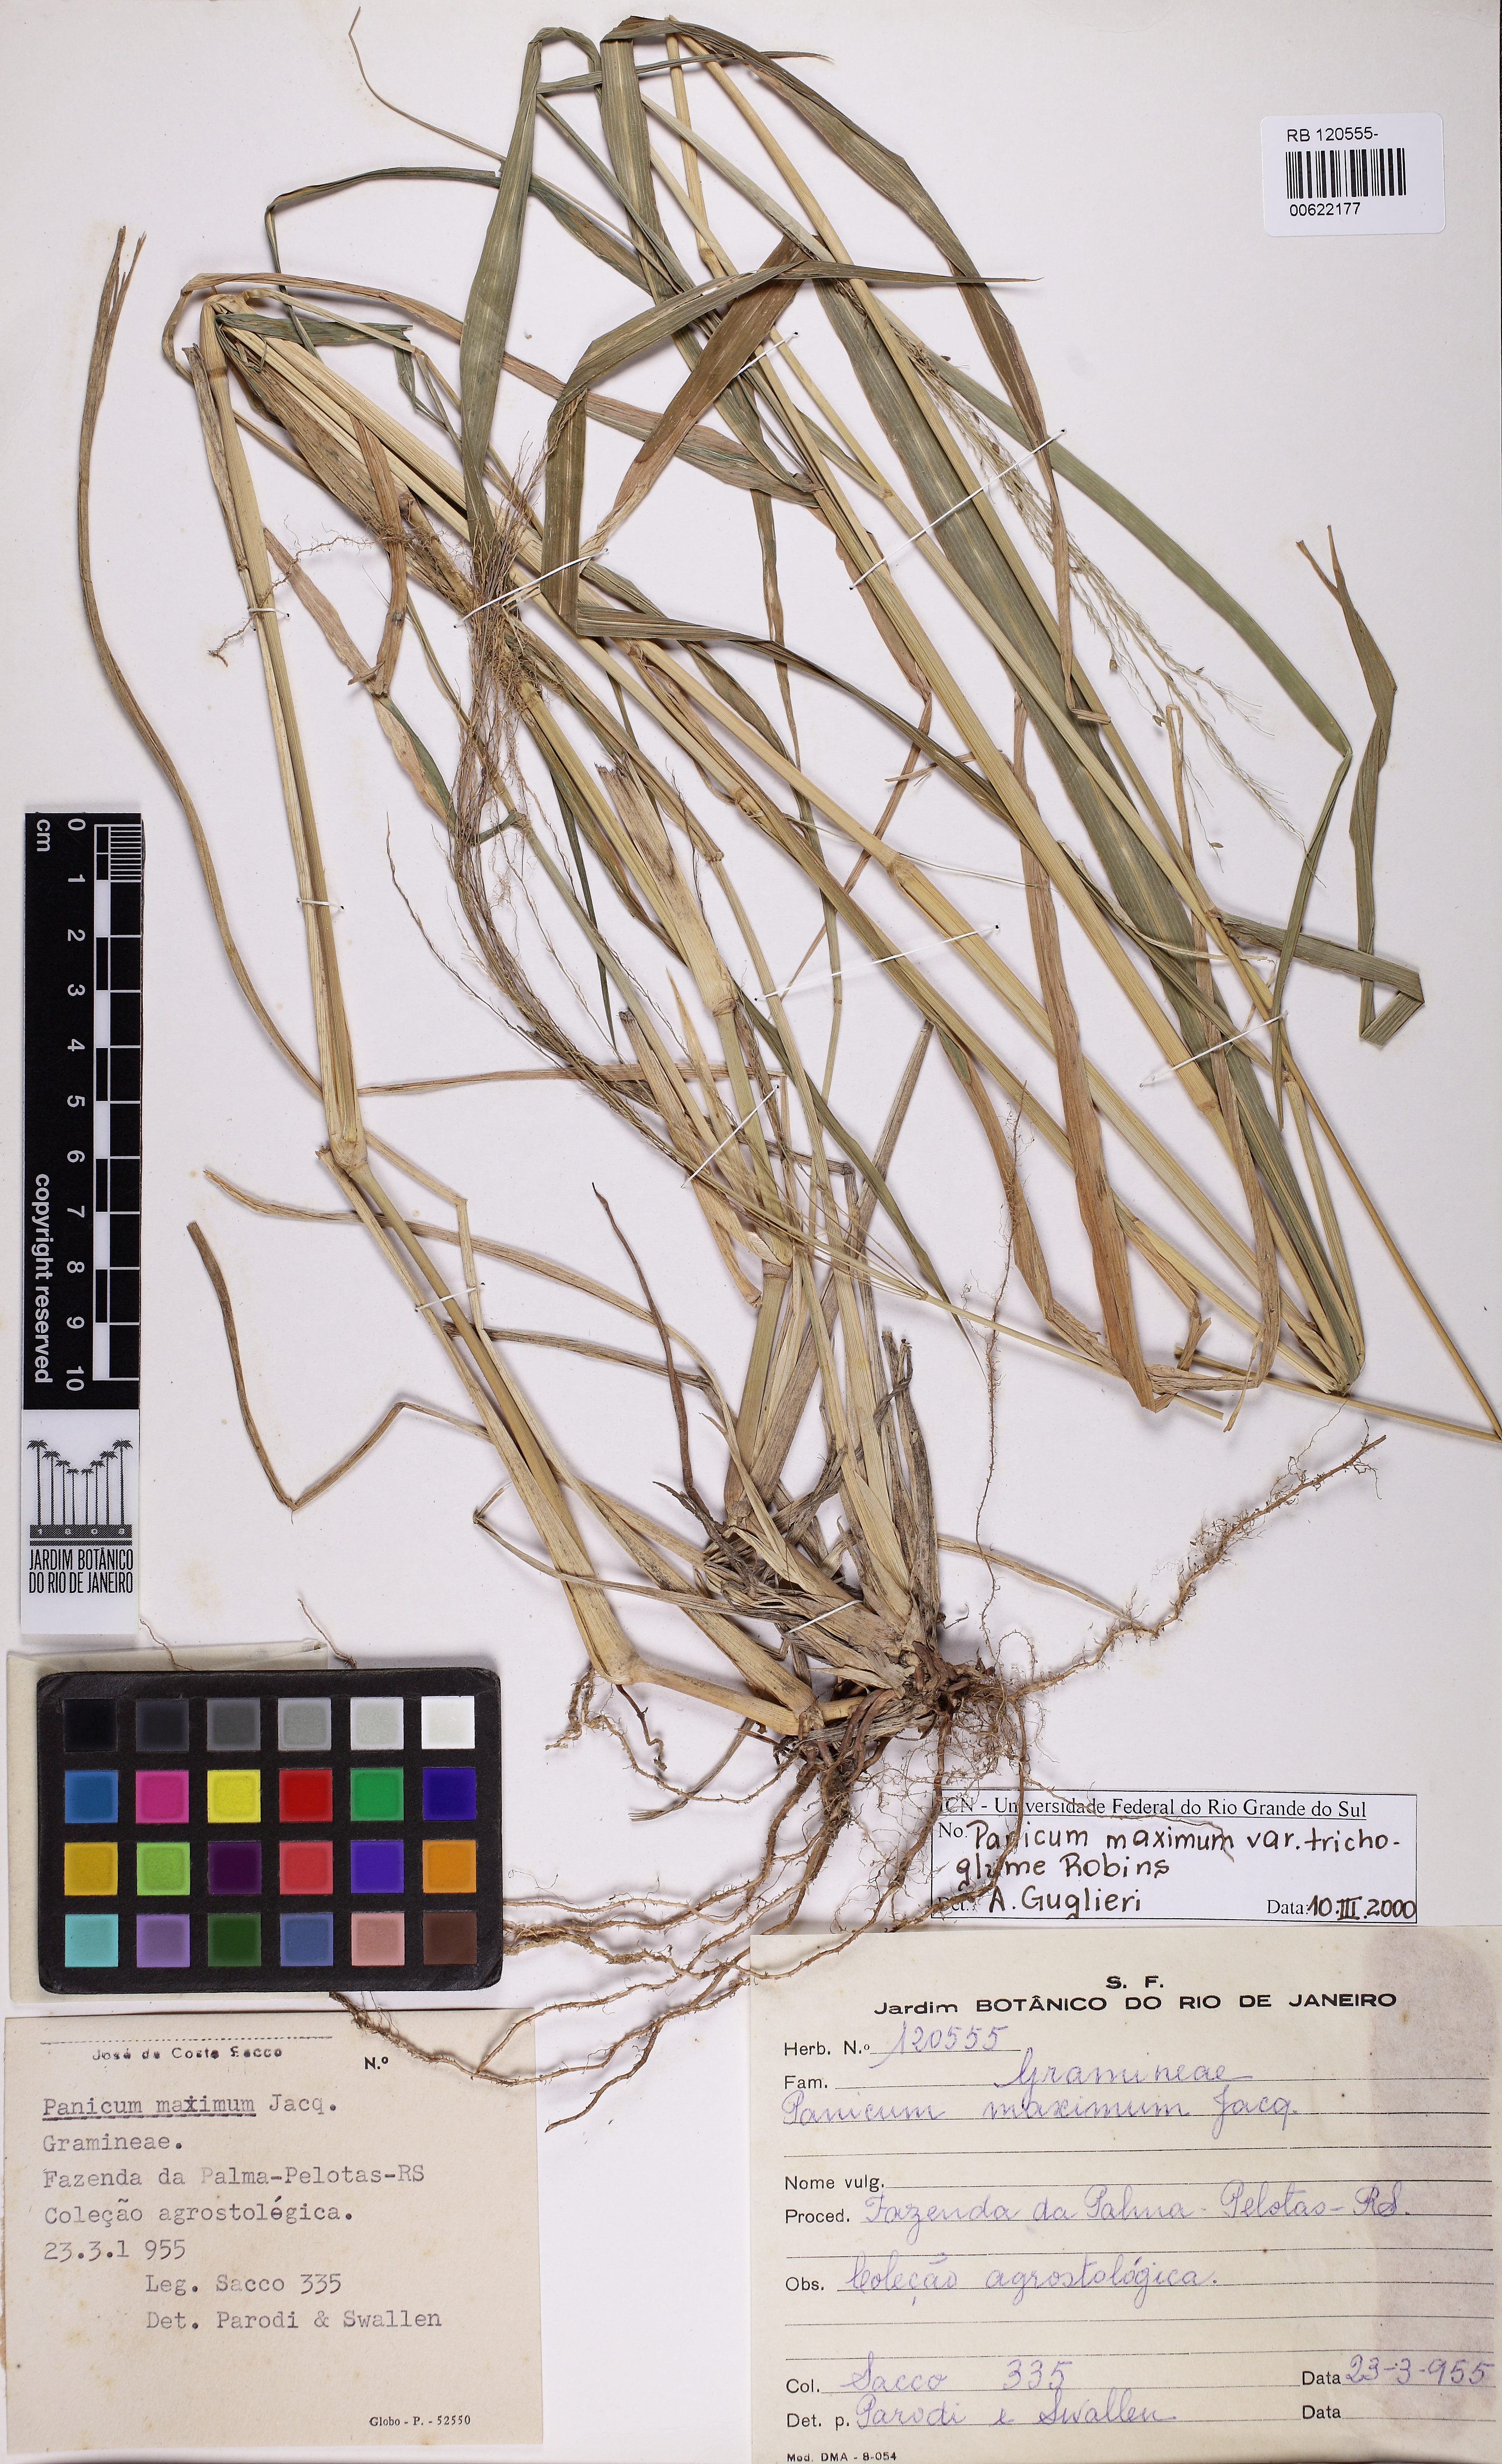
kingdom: Plantae
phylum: Tracheophyta
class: Liliopsida
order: Poales
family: Poaceae
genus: Megathyrsus
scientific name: Megathyrsus maximus
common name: Guineagrass
